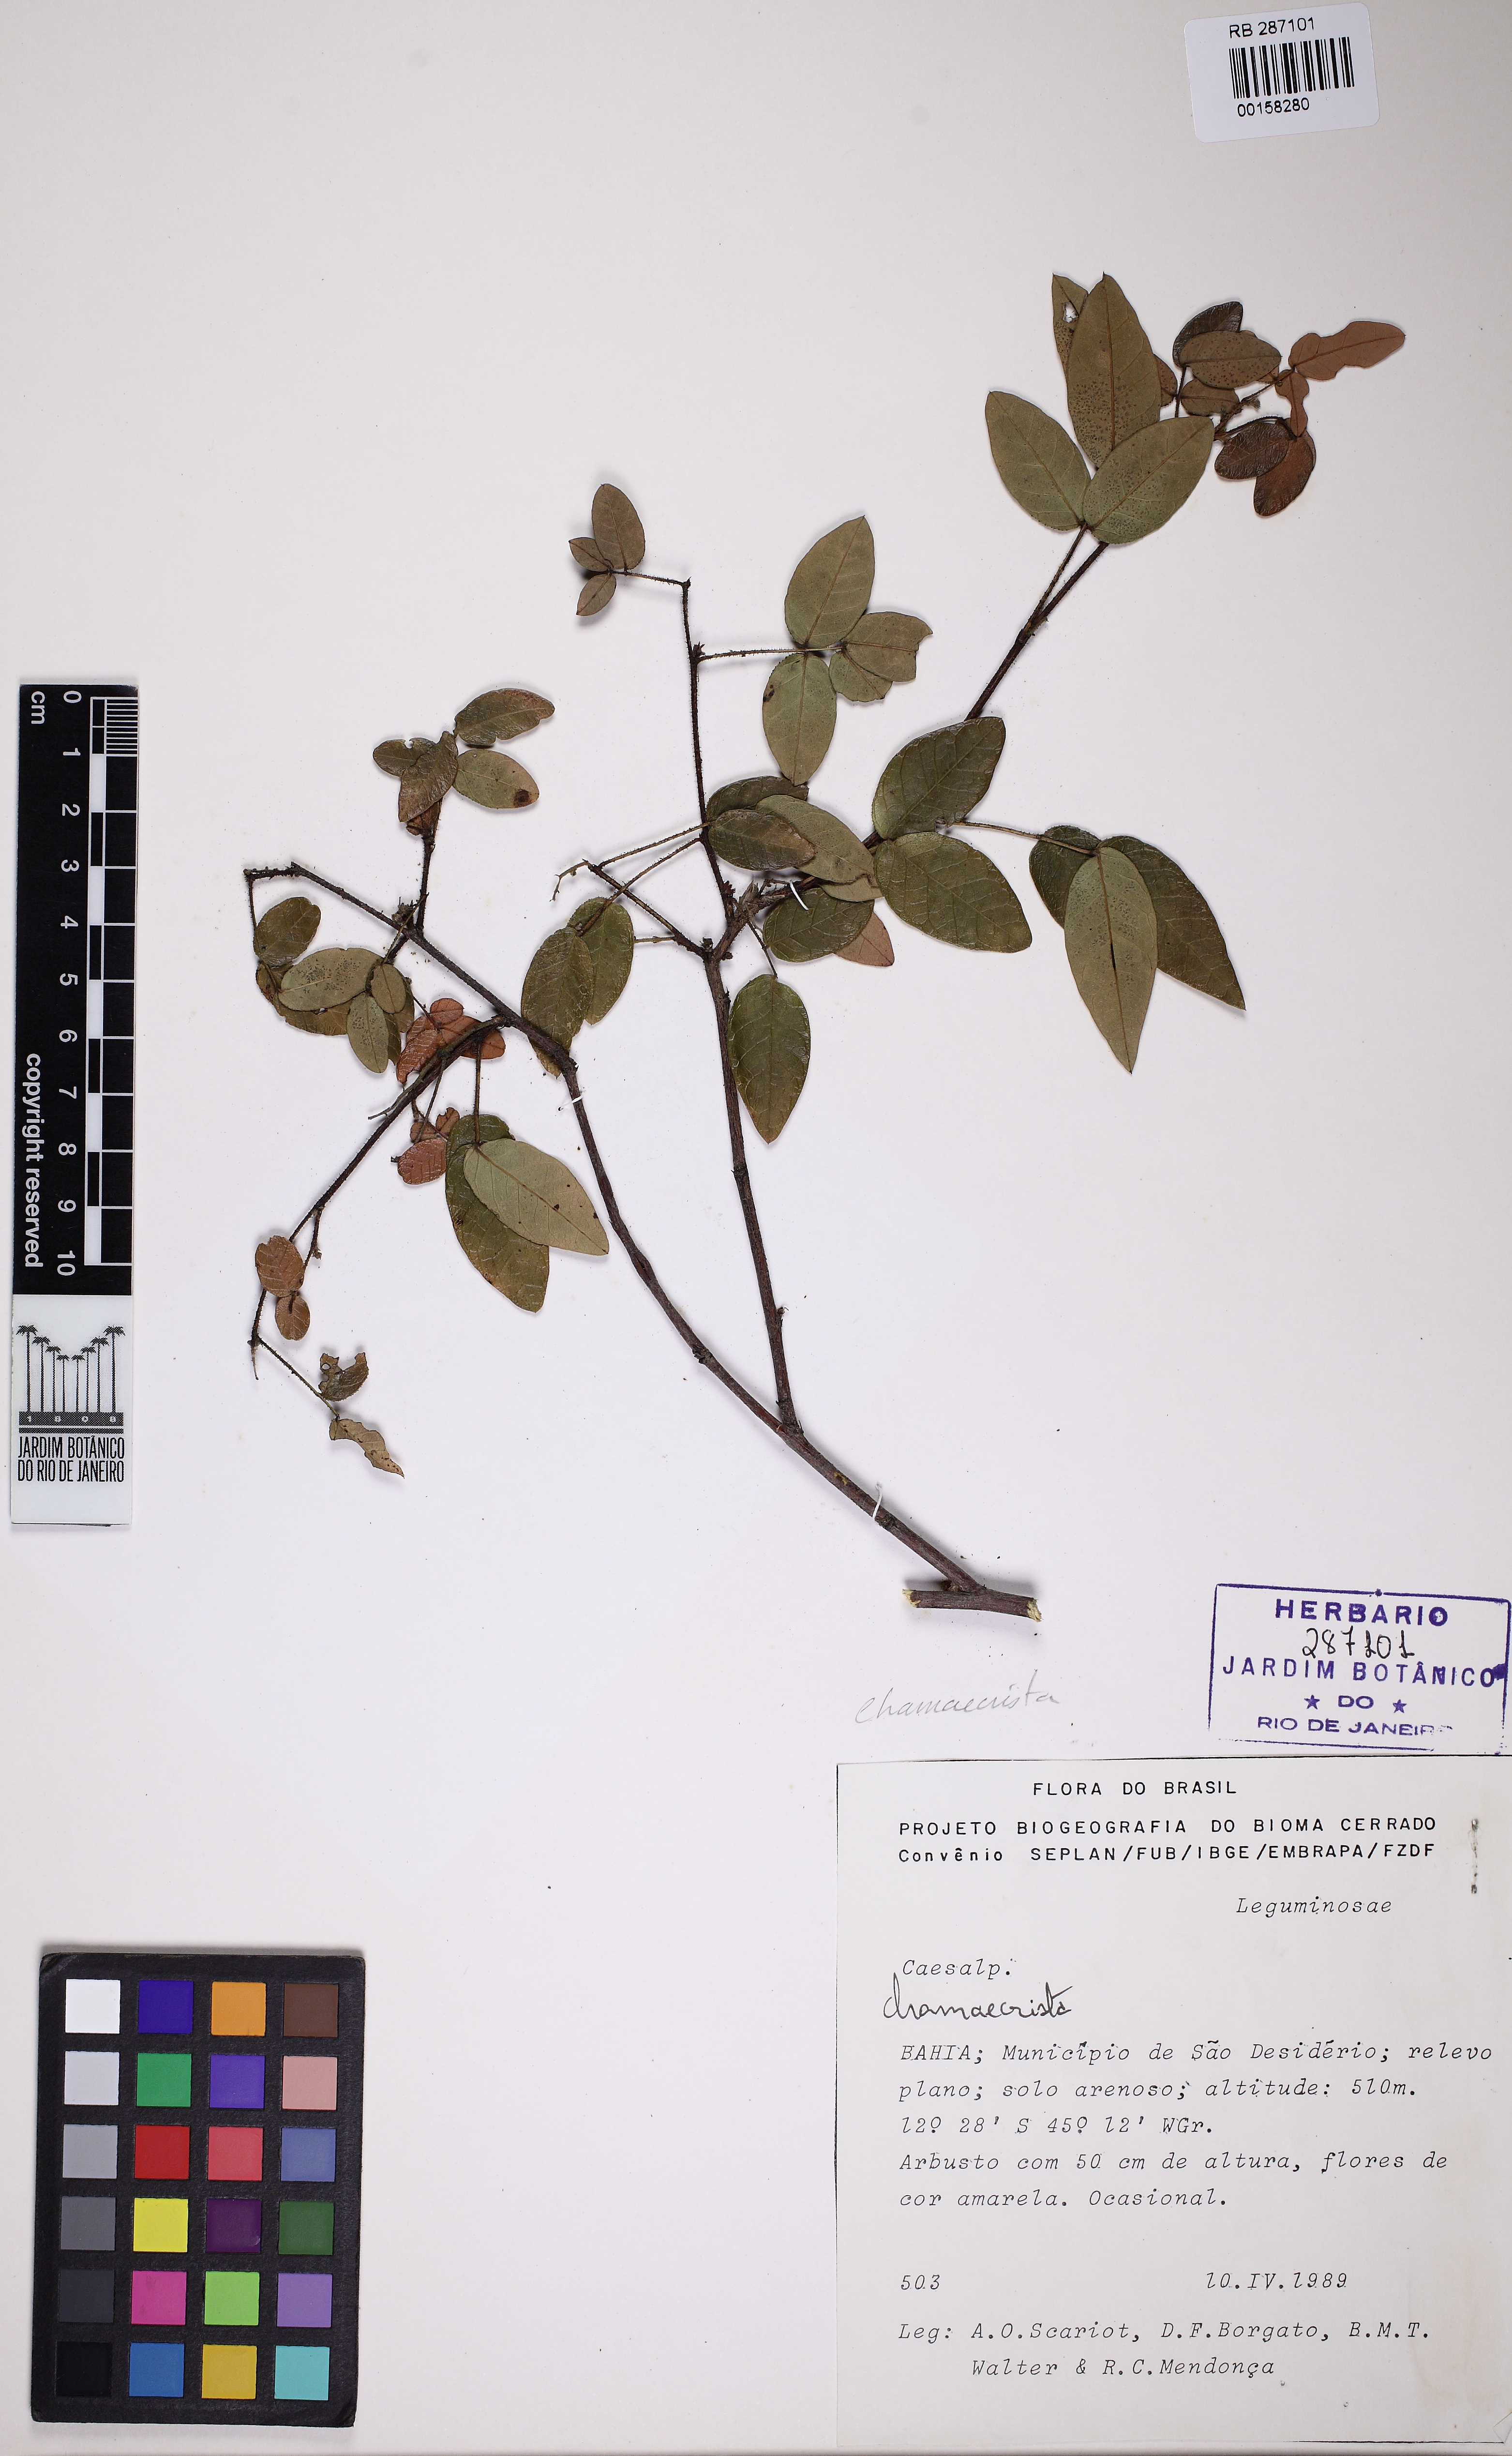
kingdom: Plantae
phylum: Tracheophyta
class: Magnoliopsida
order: Fabales
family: Fabaceae
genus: Chamaecrista
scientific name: Chamaecrista
